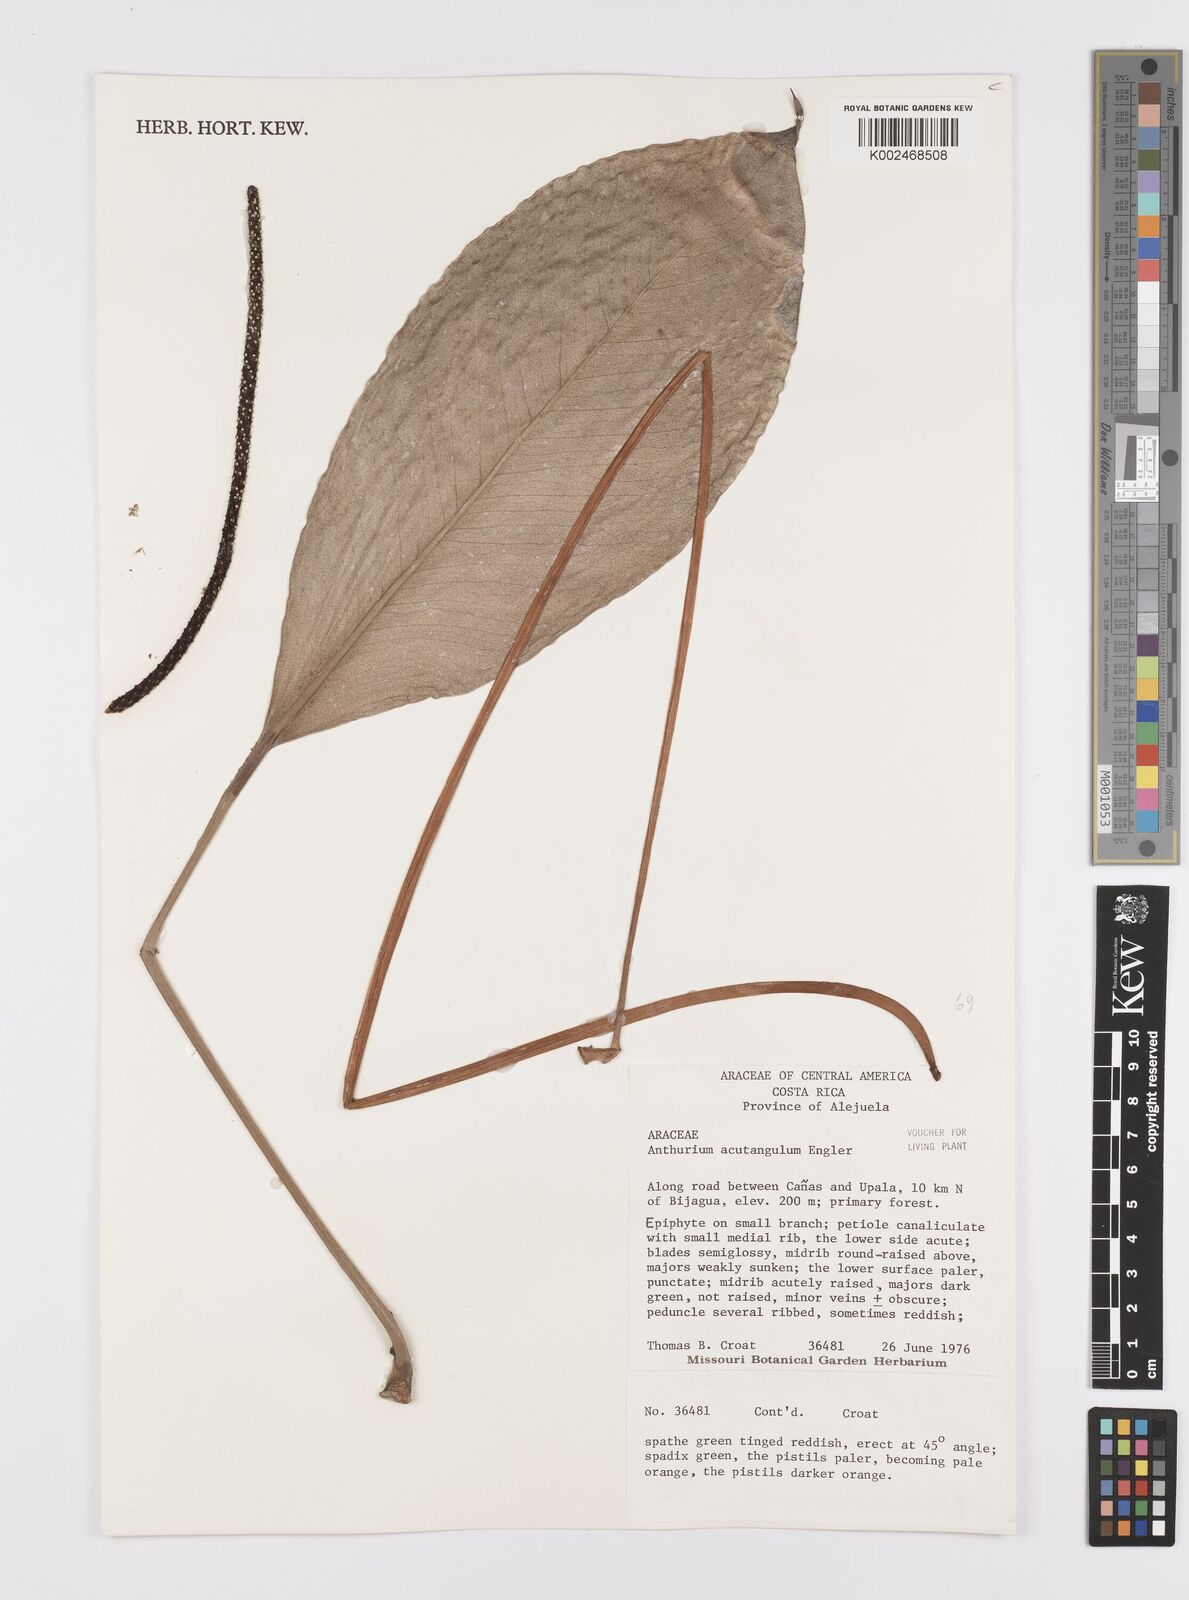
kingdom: Plantae
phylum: Tracheophyta
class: Liliopsida
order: Alismatales
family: Araceae
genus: Anthurium
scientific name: Anthurium acutangulum
